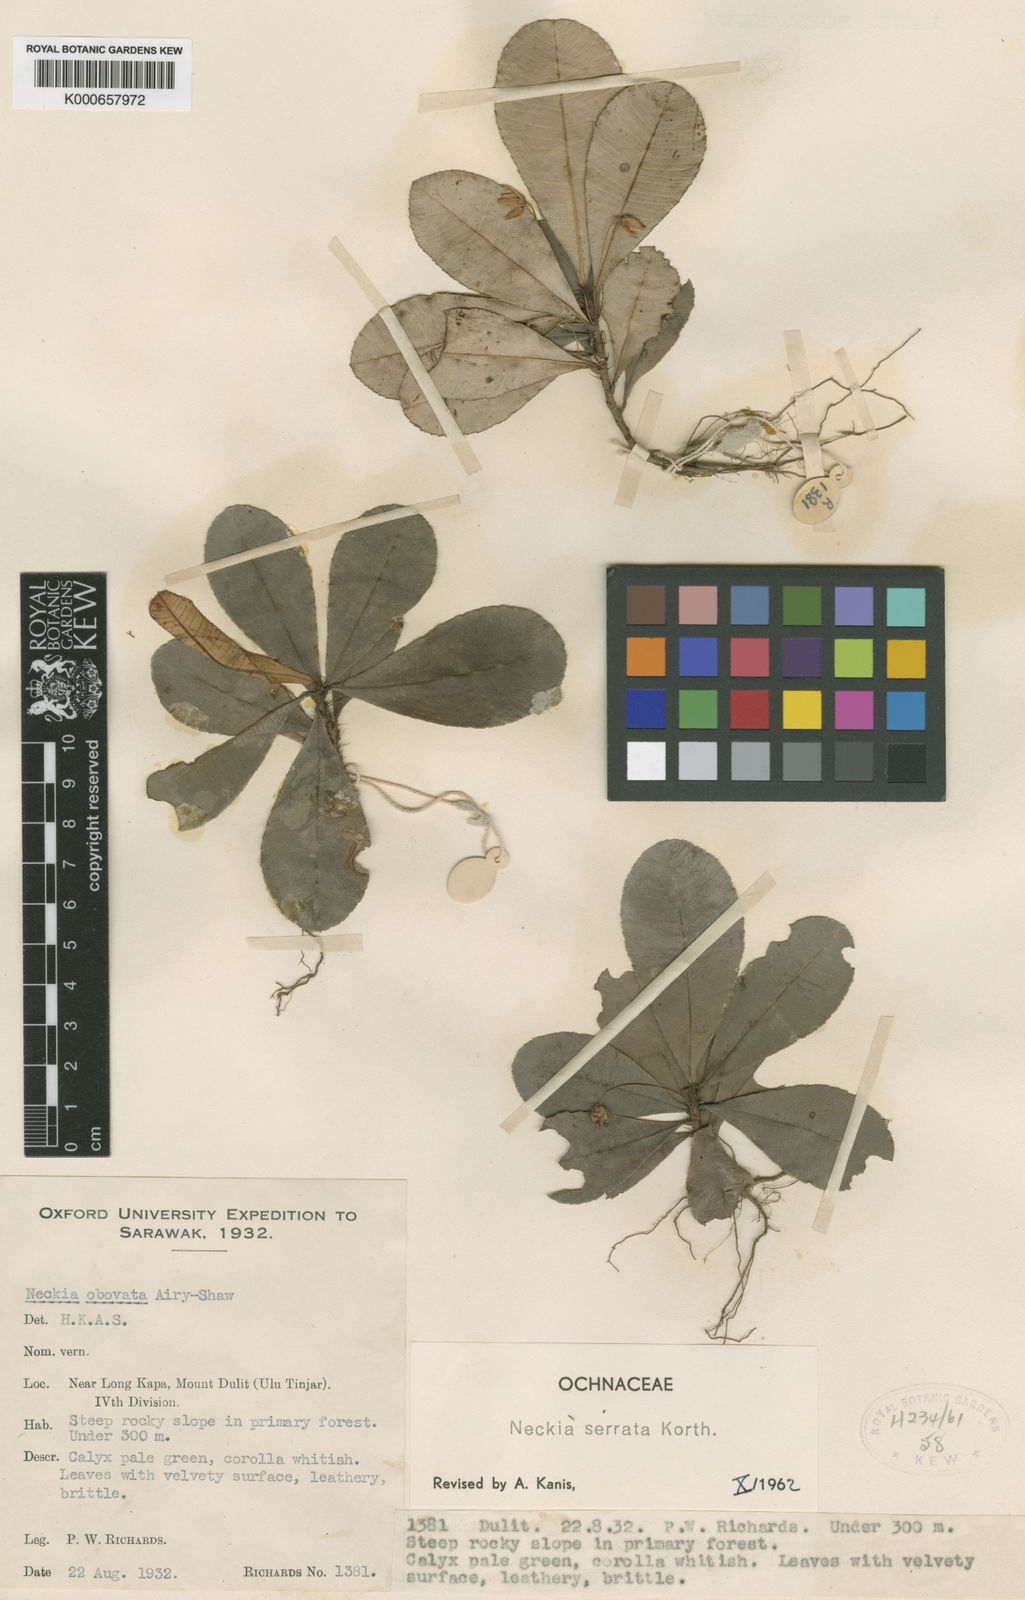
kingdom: Plantae
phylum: Tracheophyta
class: Magnoliopsida
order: Malpighiales
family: Ochnaceae
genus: Neckia
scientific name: Neckia serrata
